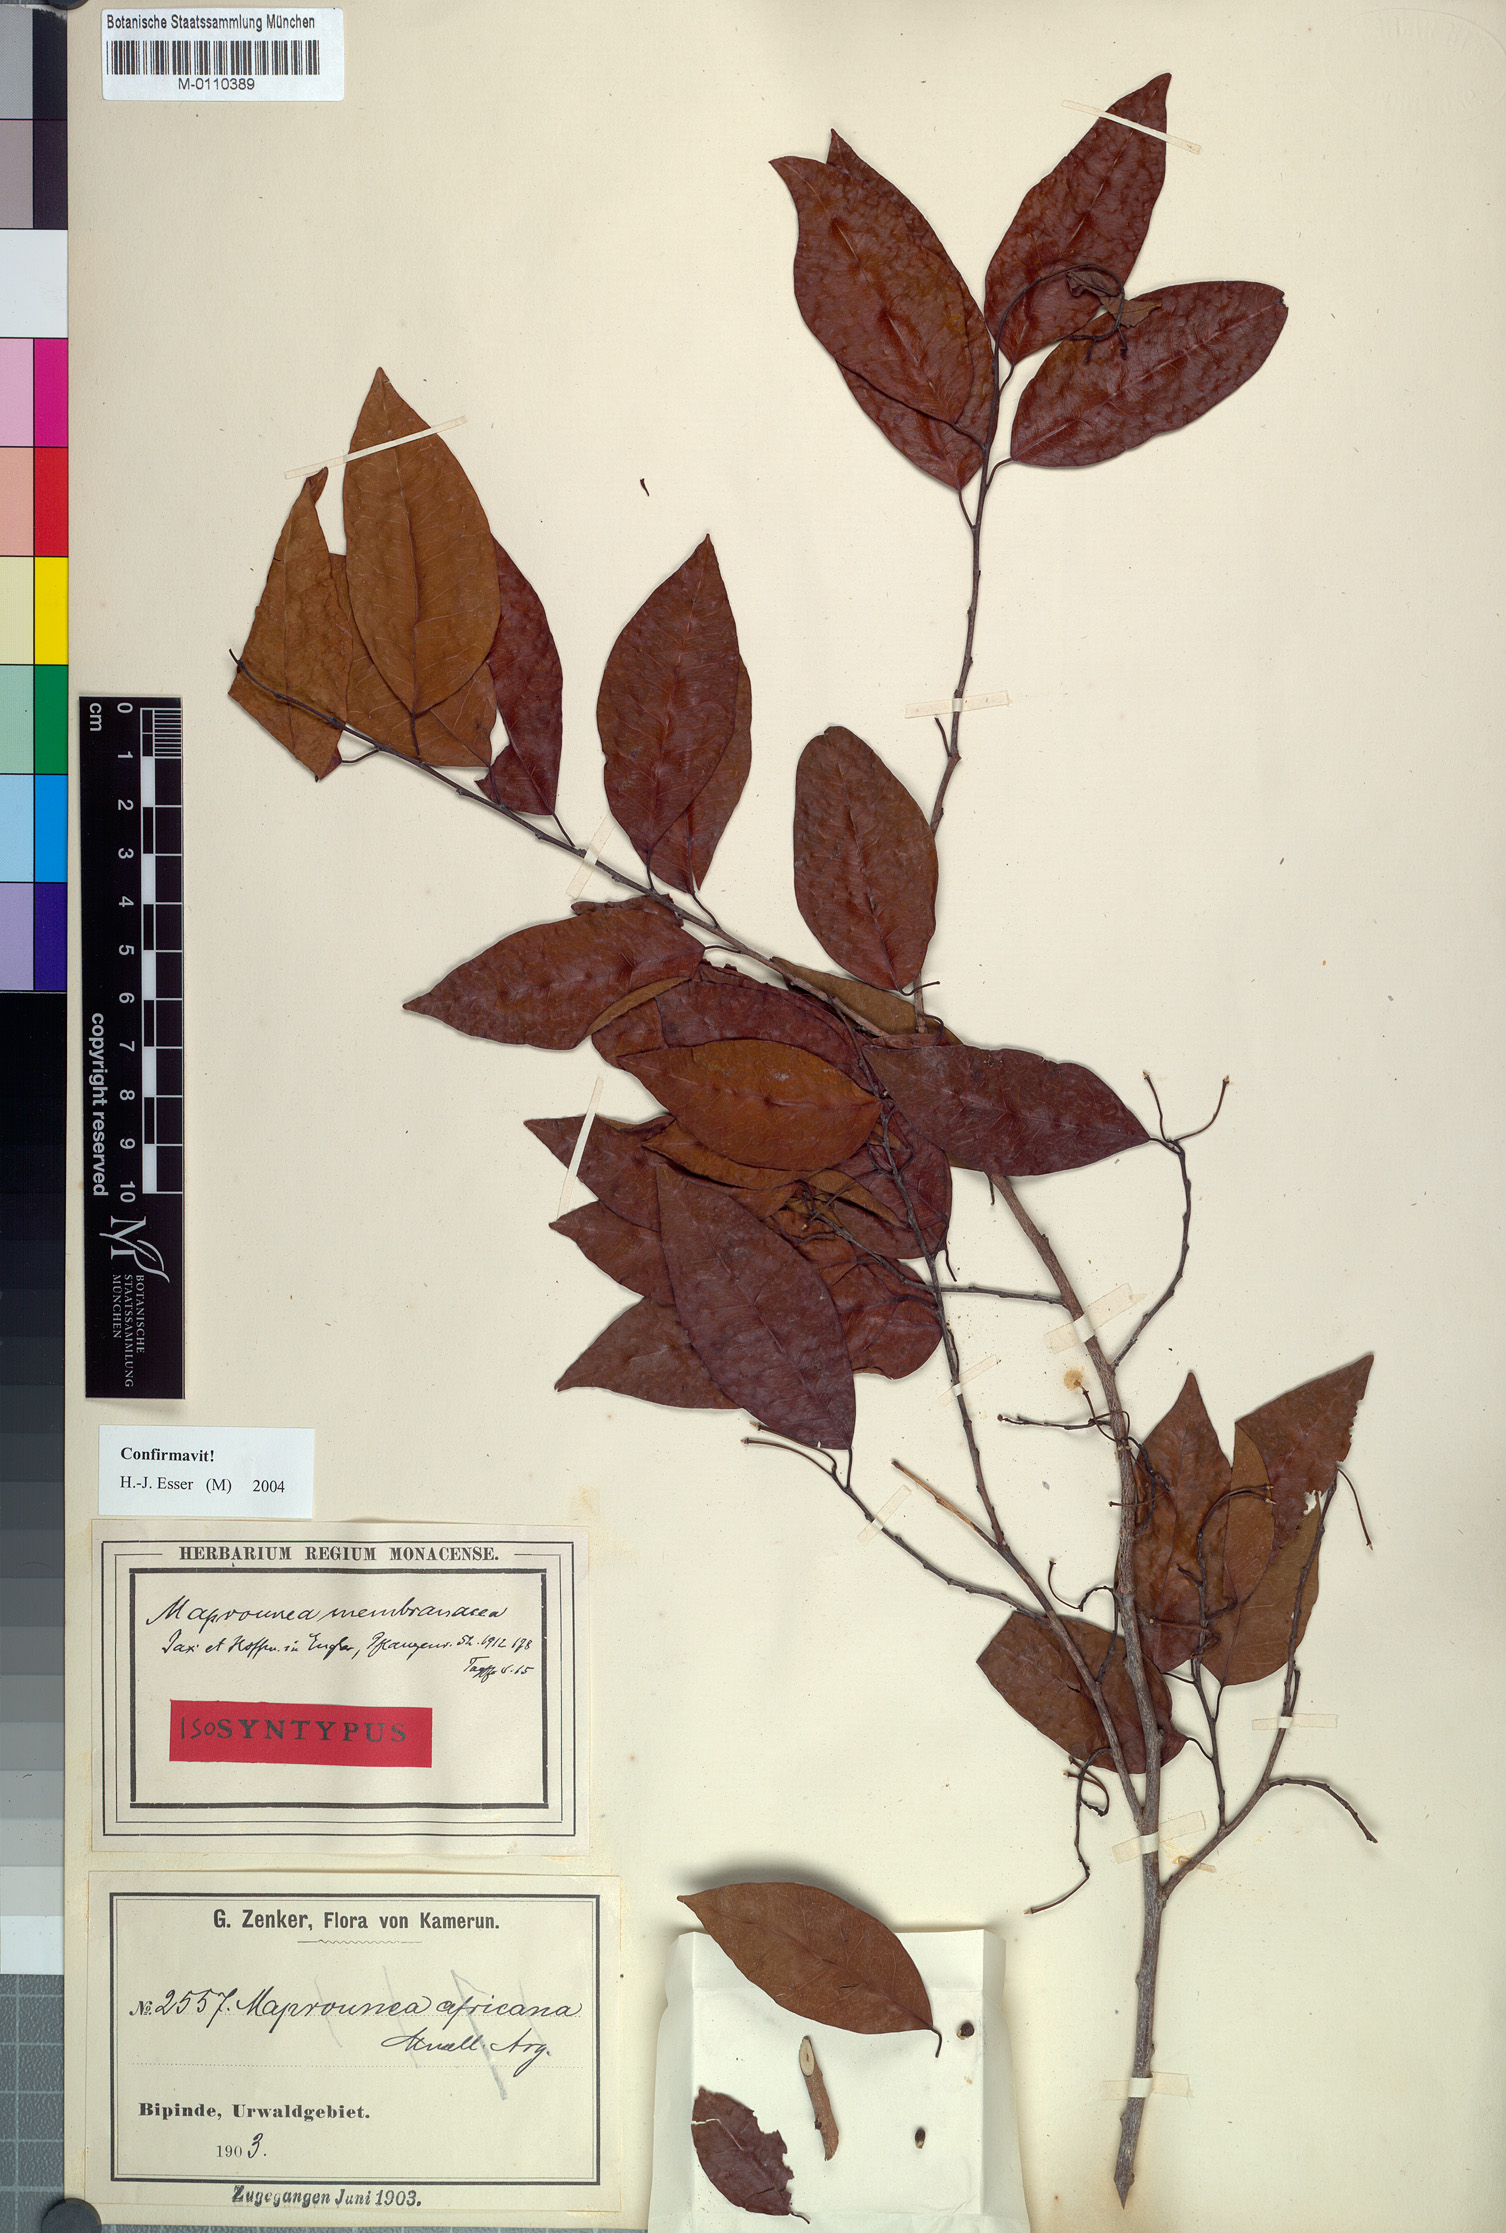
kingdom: Plantae
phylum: Tracheophyta
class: Magnoliopsida
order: Malpighiales
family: Euphorbiaceae
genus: Maprounea
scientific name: Maprounea membranacea
